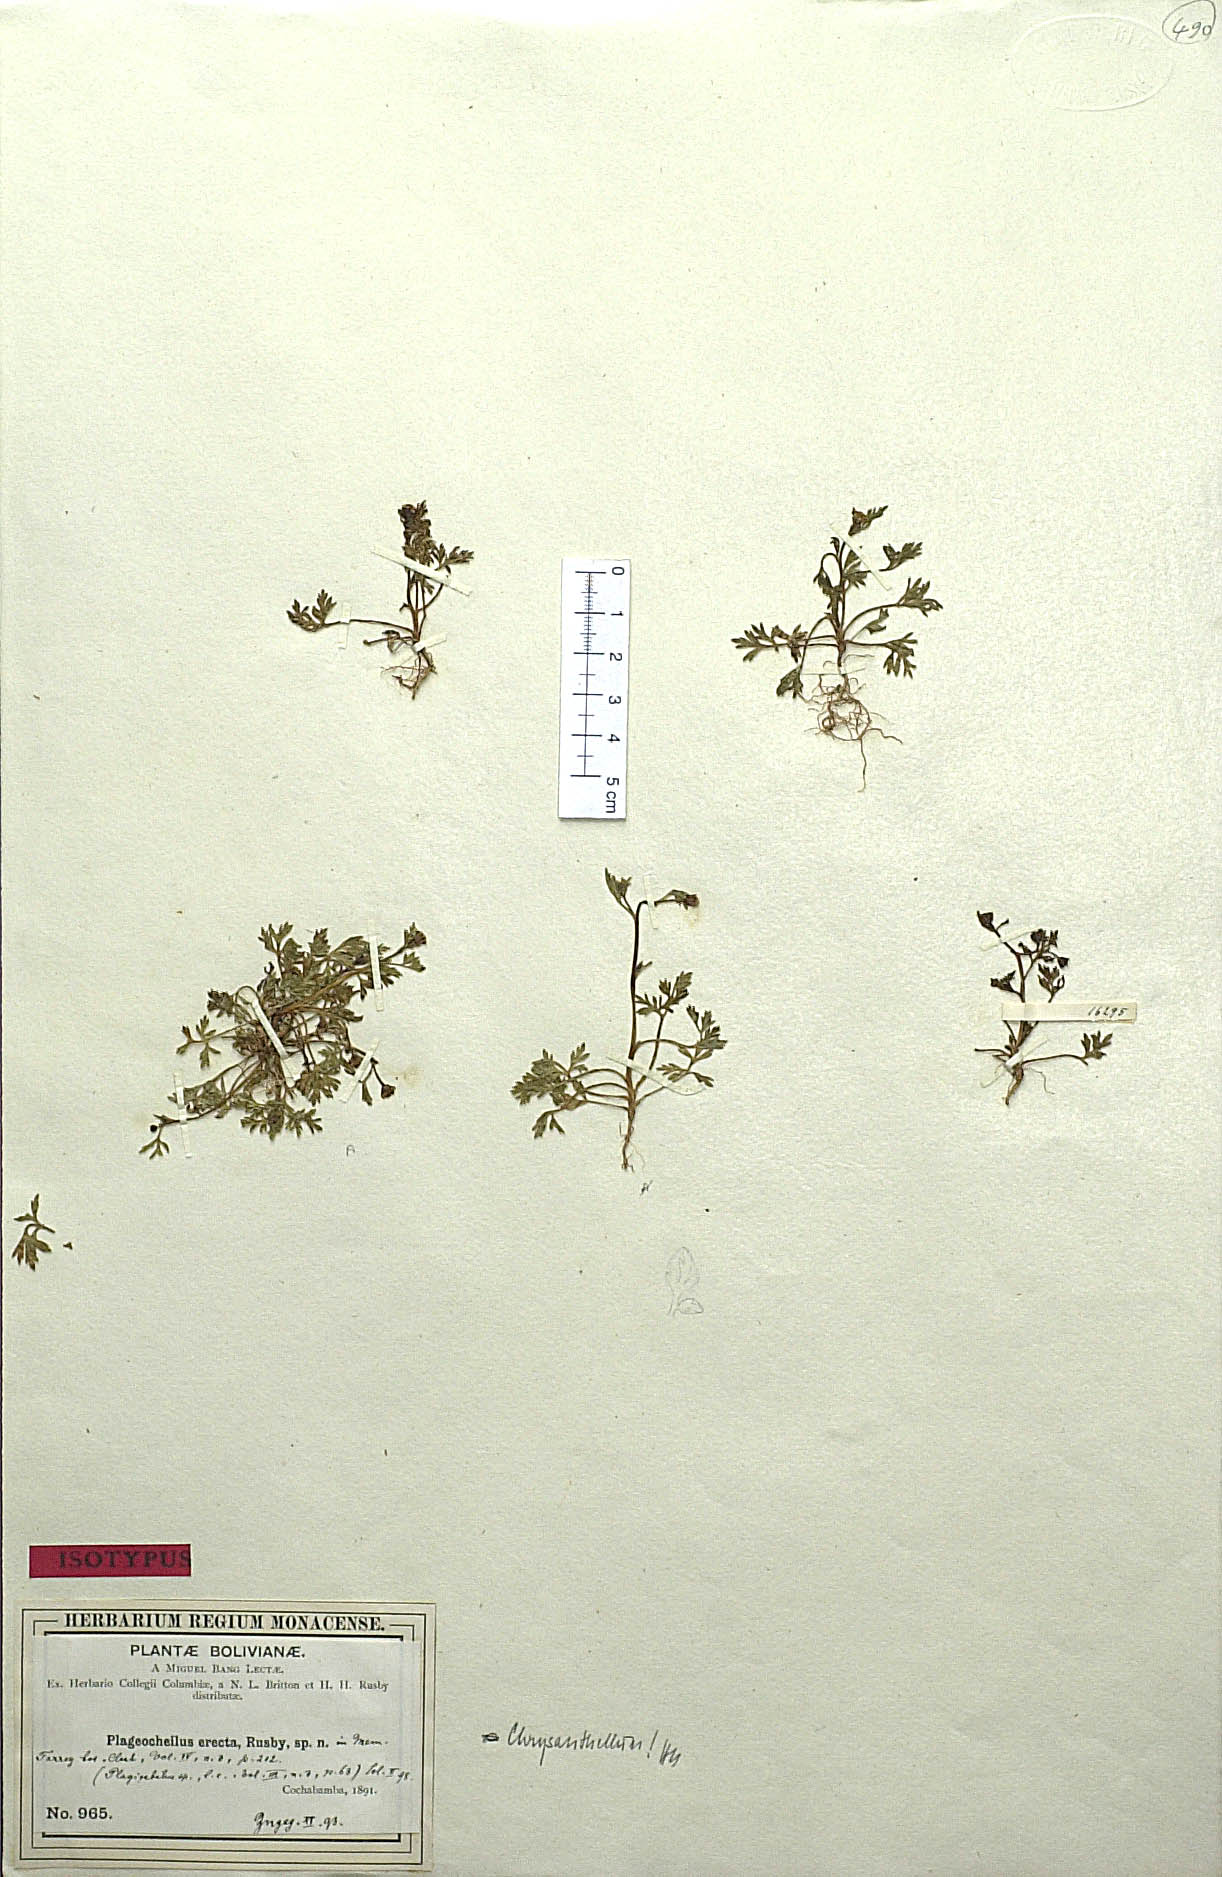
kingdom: Plantae
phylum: Tracheophyta
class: Magnoliopsida
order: Asterales
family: Asteraceae
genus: Chrysanthellum
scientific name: Chrysanthellum indicum
